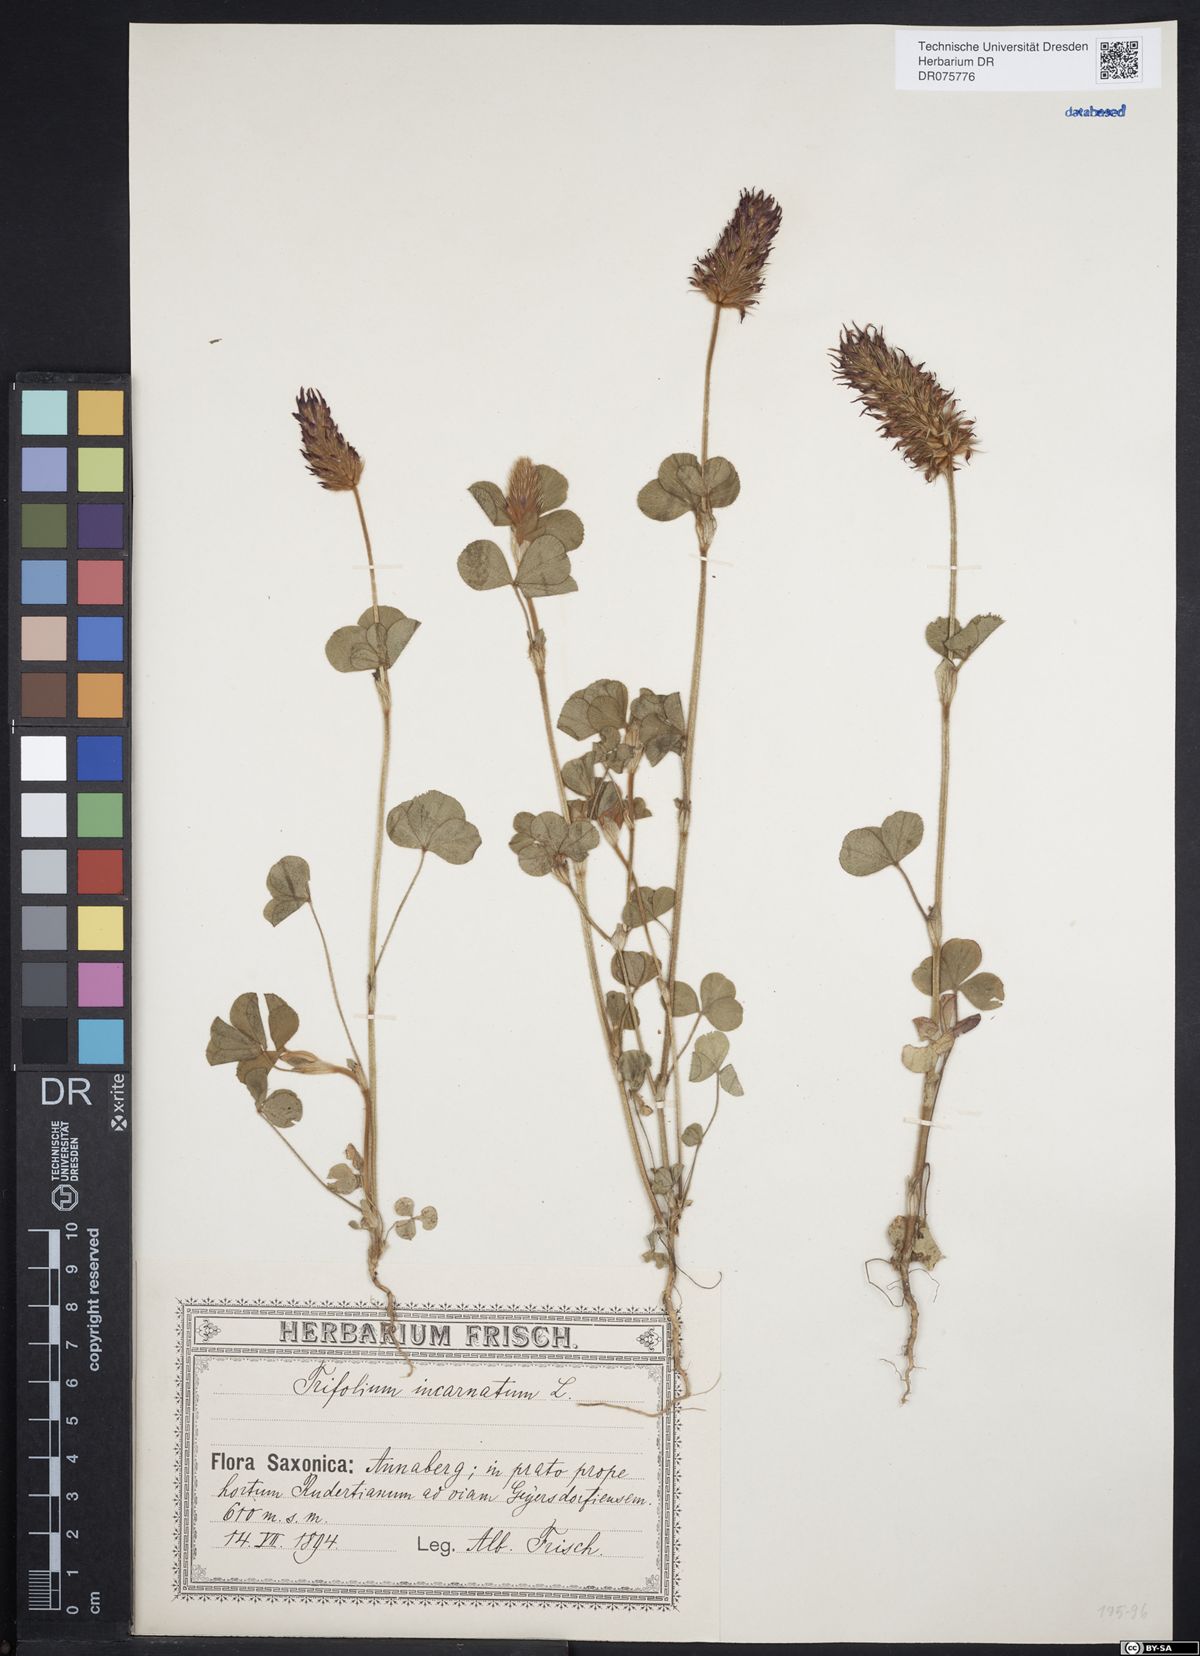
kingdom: Plantae
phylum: Tracheophyta
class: Magnoliopsida
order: Fabales
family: Fabaceae
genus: Trifolium
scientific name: Trifolium incarnatum
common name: Crimson clover
